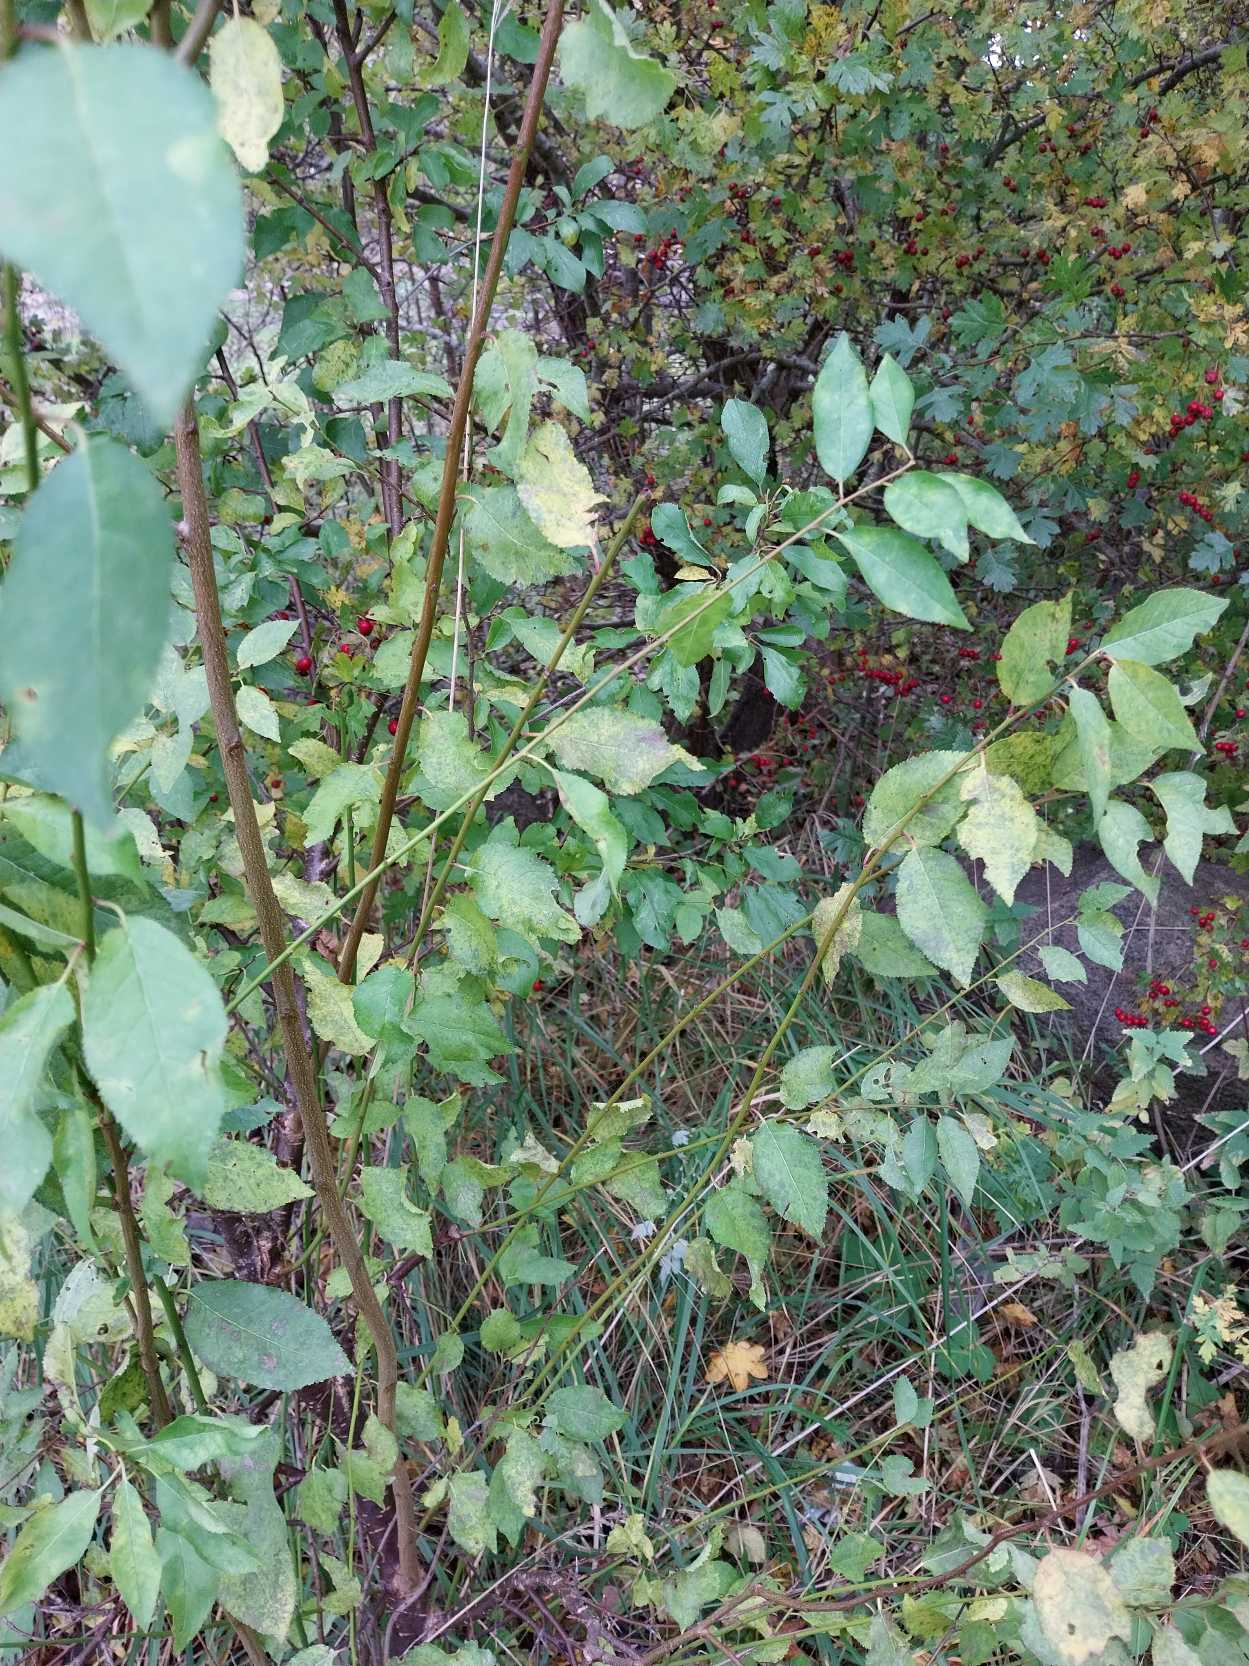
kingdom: Plantae
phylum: Tracheophyta
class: Magnoliopsida
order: Rosales
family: Rosaceae
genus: Prunus
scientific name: Prunus cerasifera
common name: Mirabel
